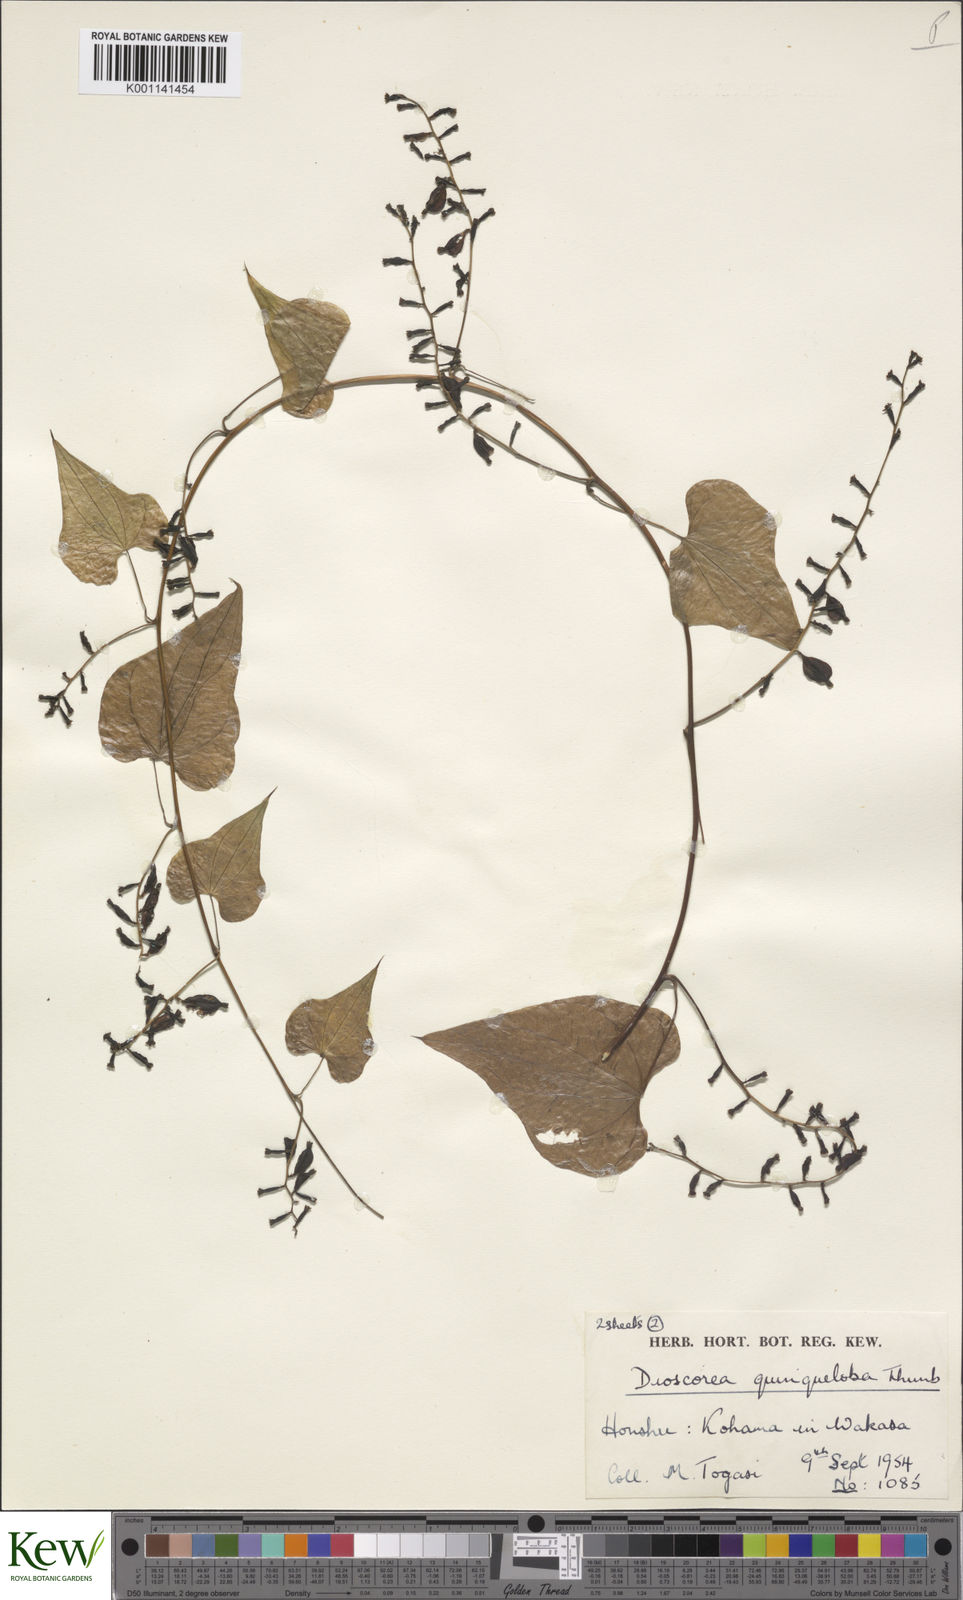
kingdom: Plantae
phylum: Tracheophyta
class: Liliopsida
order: Dioscoreales
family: Dioscoreaceae
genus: Dioscorea
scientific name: Dioscorea quinquelobata
